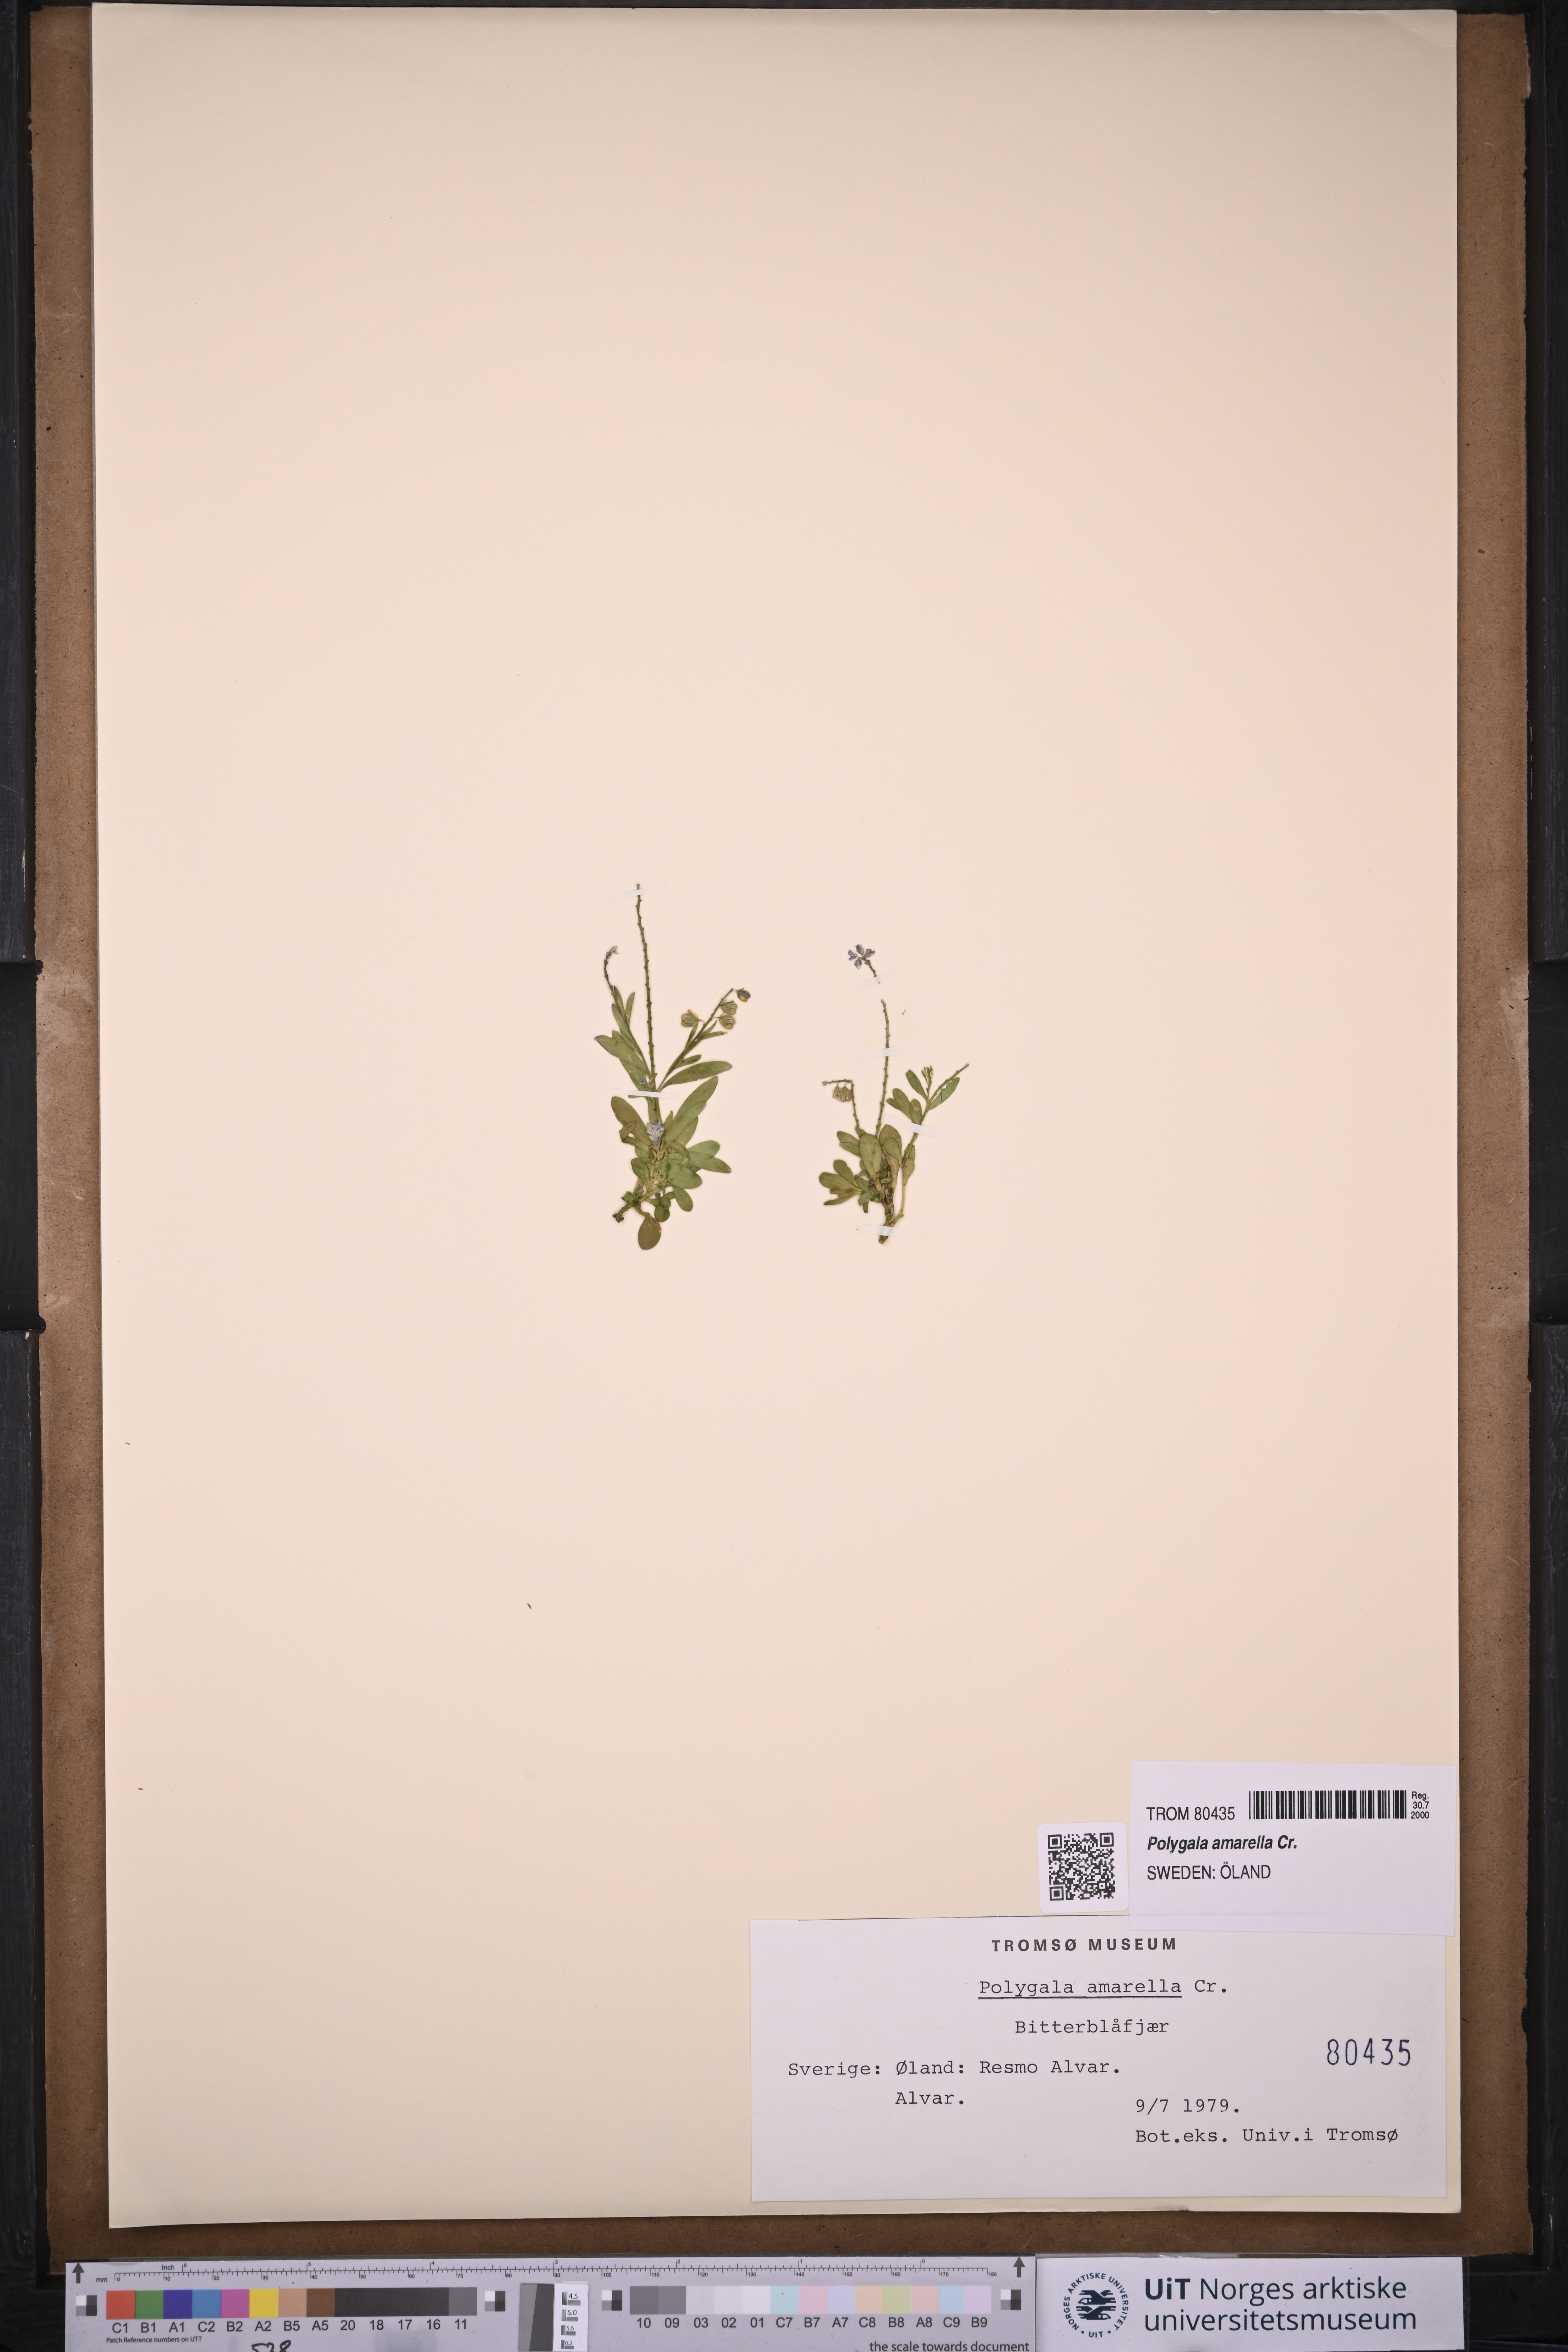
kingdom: Plantae
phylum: Tracheophyta
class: Magnoliopsida
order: Fabales
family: Polygalaceae
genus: Polygala
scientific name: Polygala amarella
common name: Dwarf milkwort
